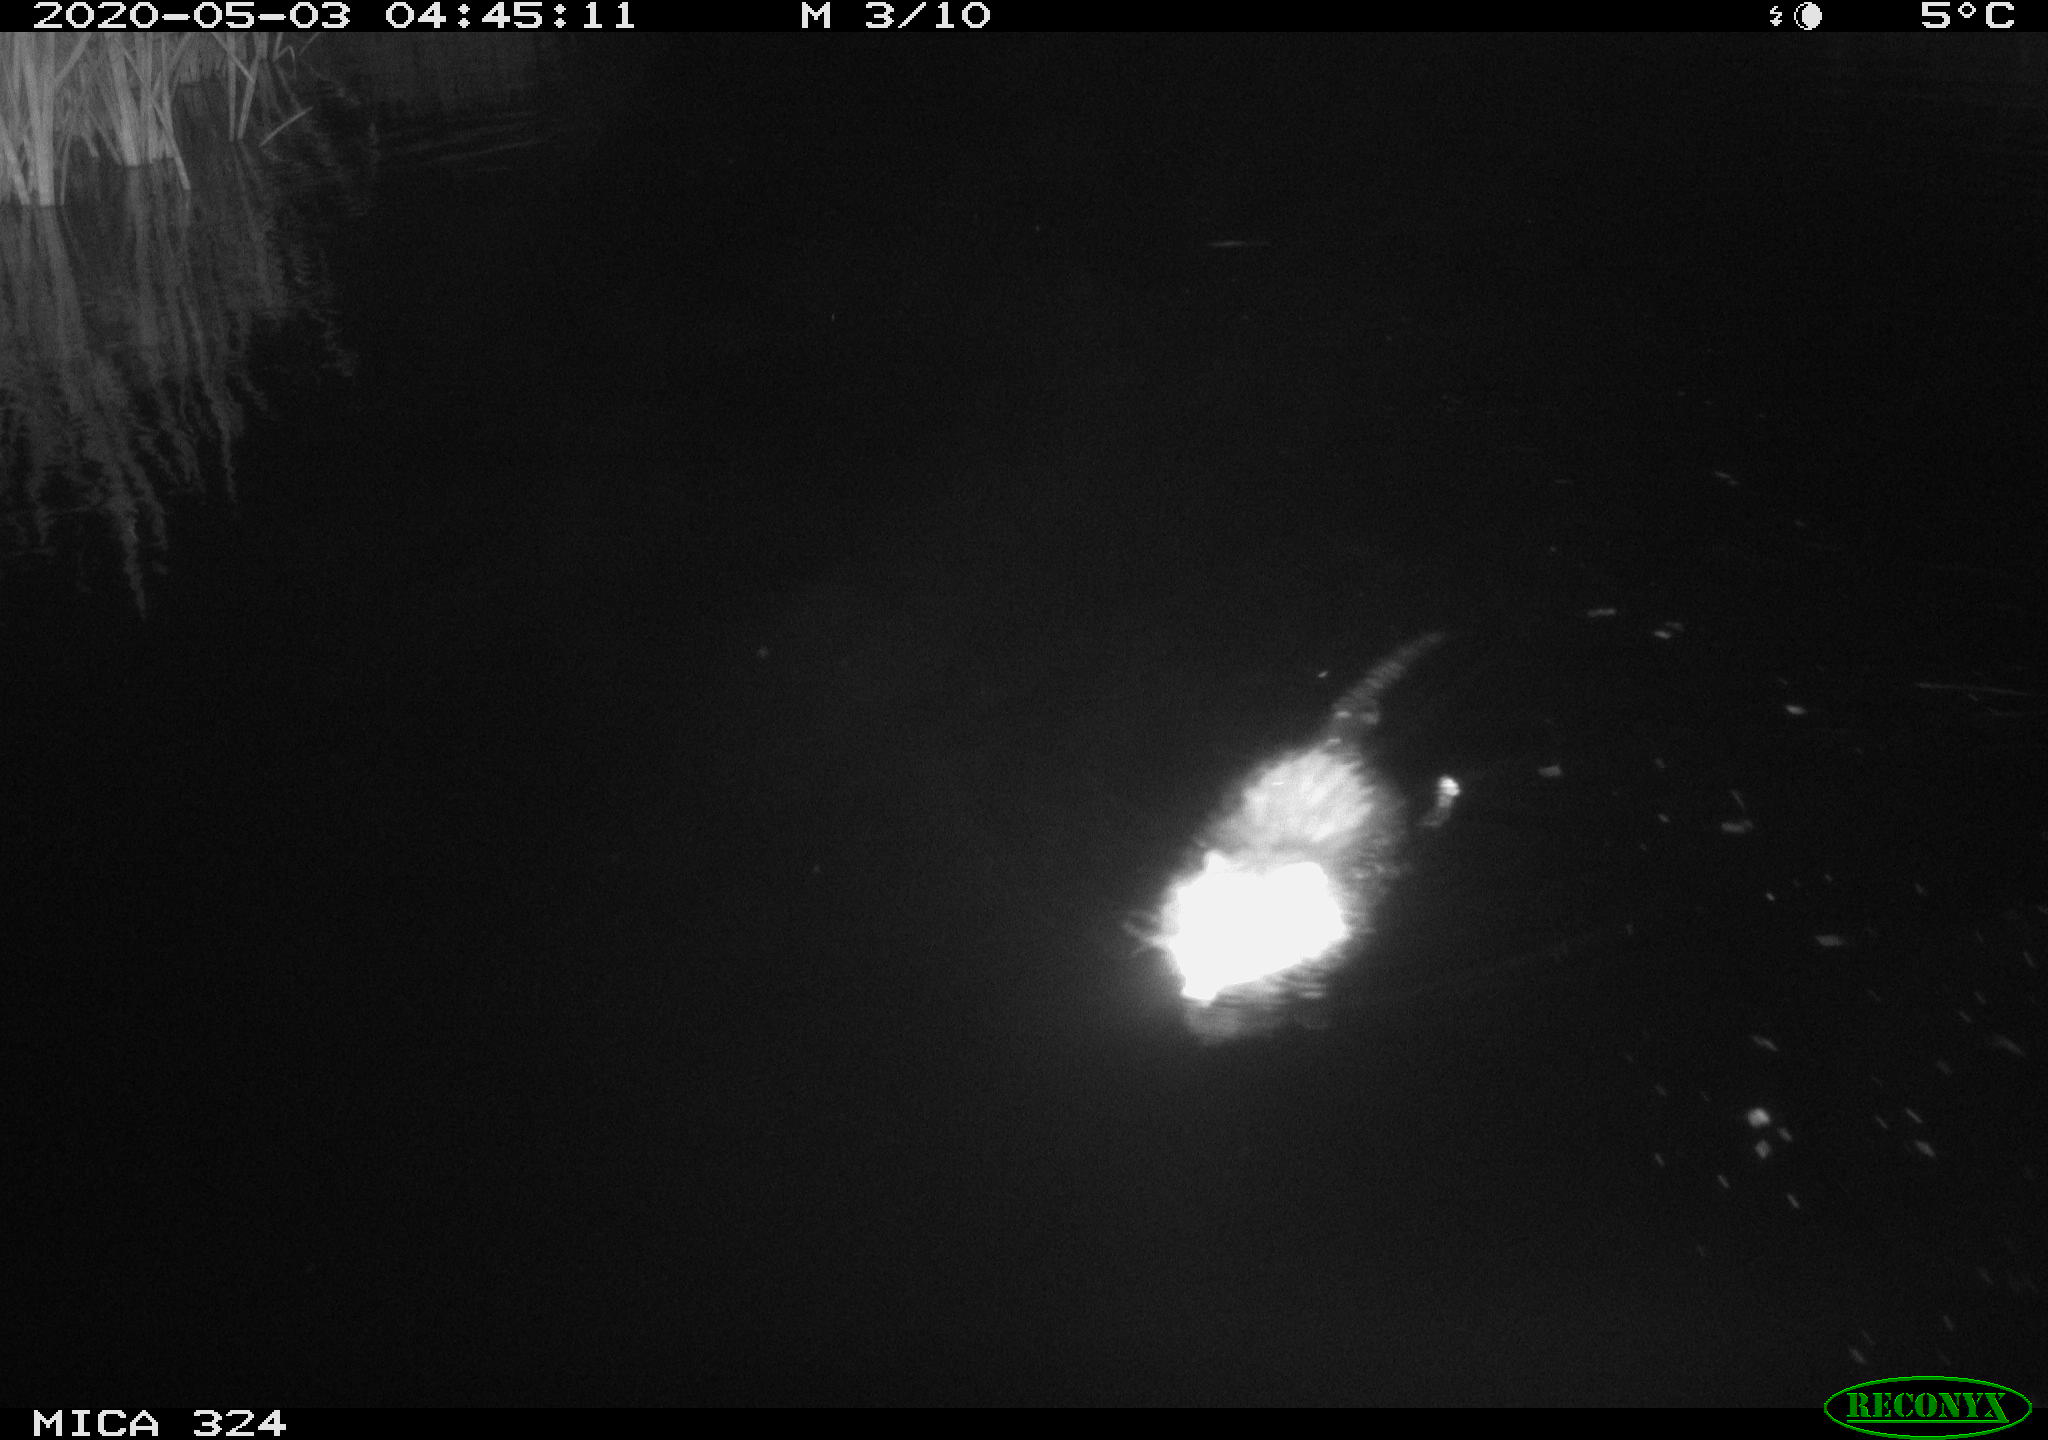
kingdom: Animalia
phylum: Chordata
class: Mammalia
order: Rodentia
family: Myocastoridae
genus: Myocastor
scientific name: Myocastor coypus
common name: Coypu
